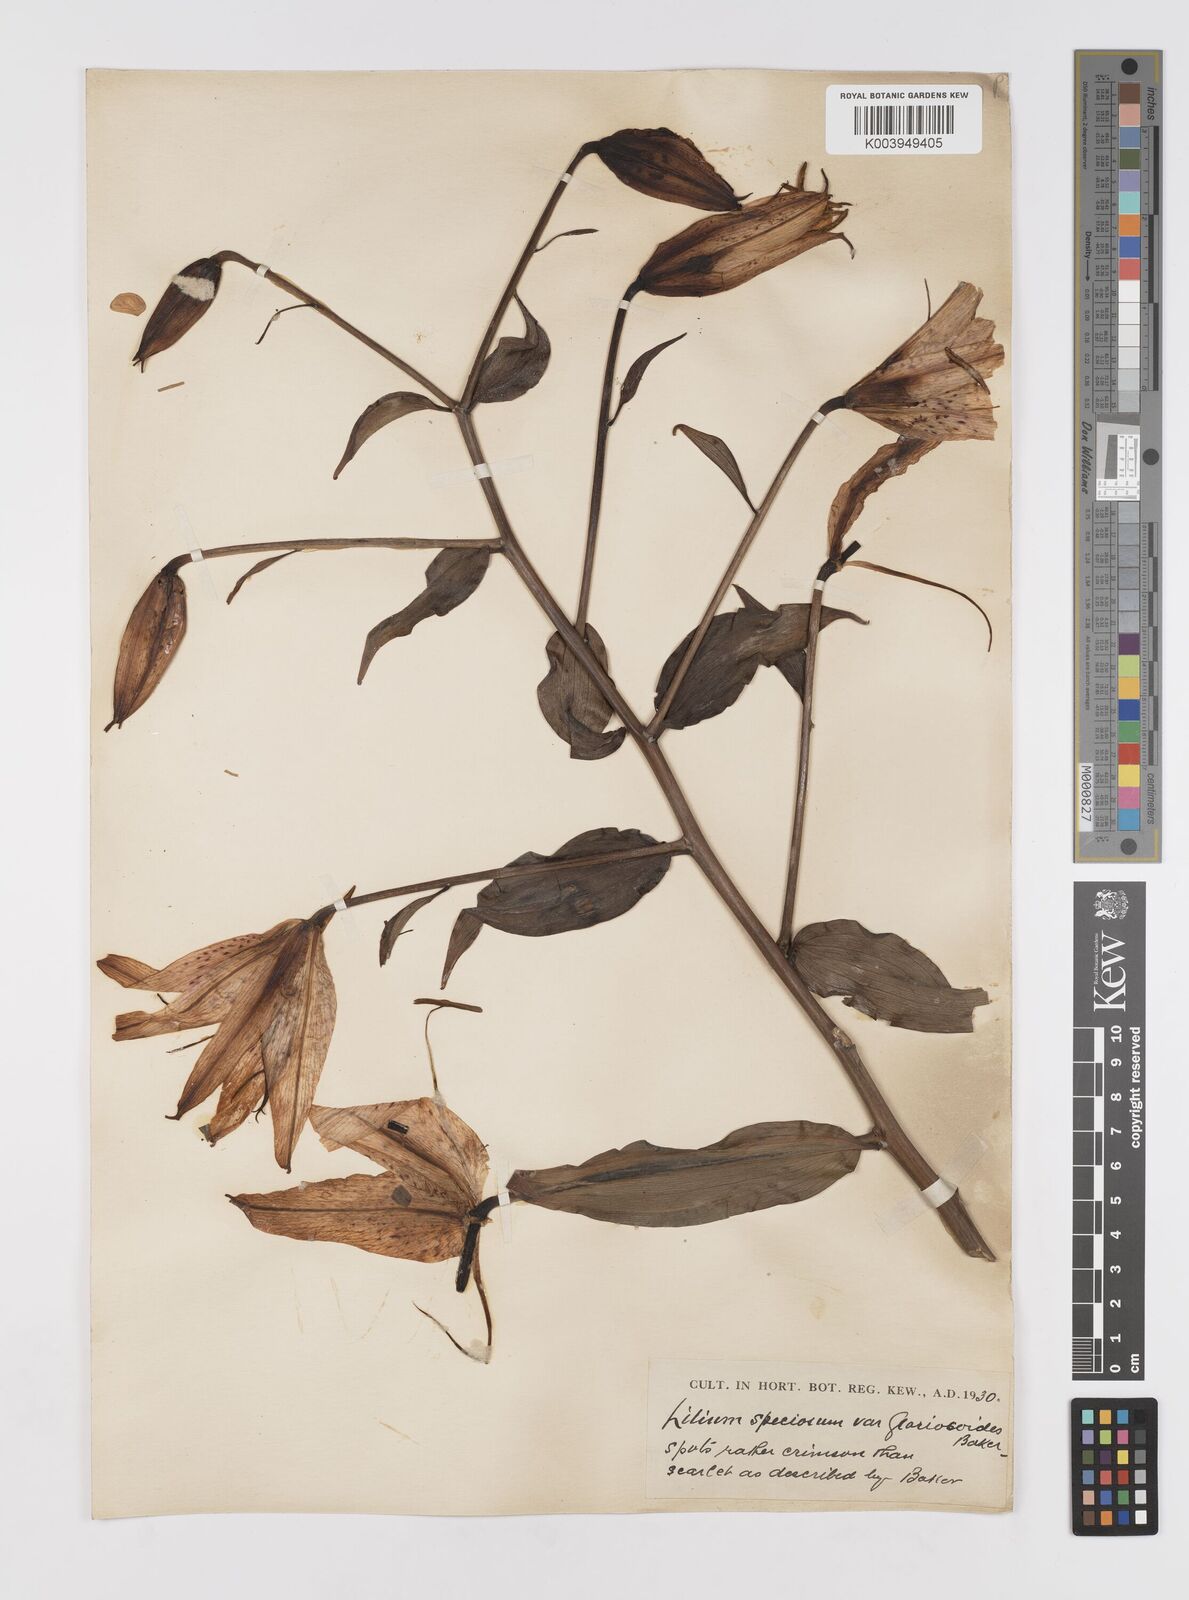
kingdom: Plantae
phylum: Tracheophyta
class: Liliopsida
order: Liliales
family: Liliaceae
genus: Lilium
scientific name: Lilium speciosum
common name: Japanese lily
